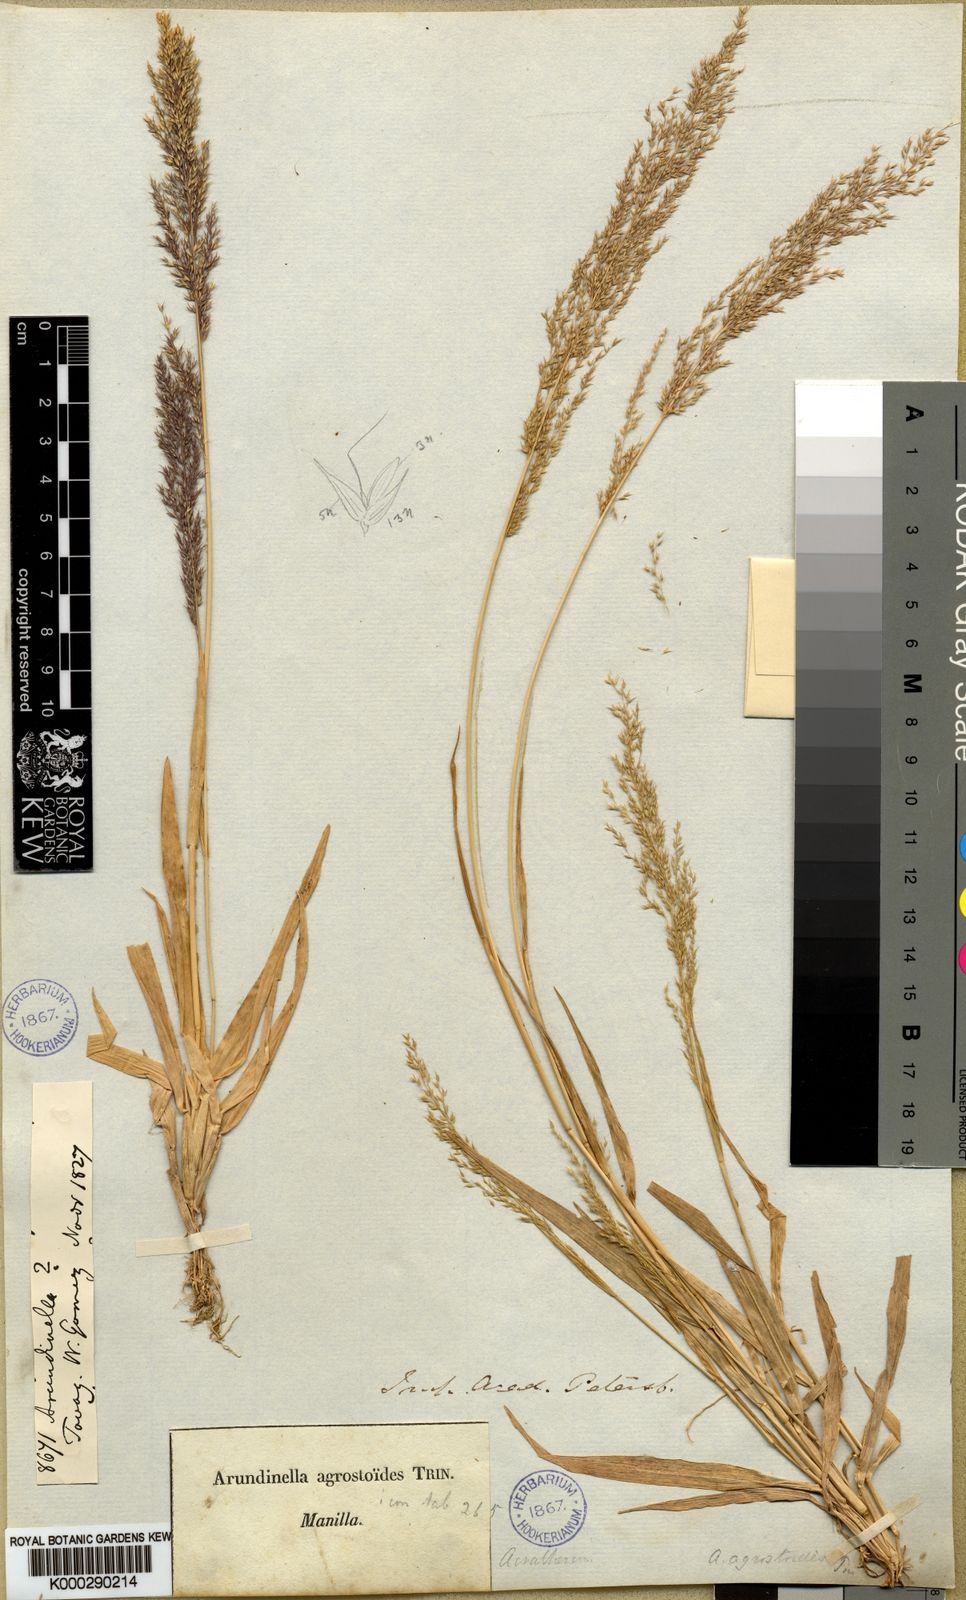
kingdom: Plantae
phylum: Tracheophyta
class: Liliopsida
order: Poales
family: Poaceae
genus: Arundinella
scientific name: Arundinella holcoides
